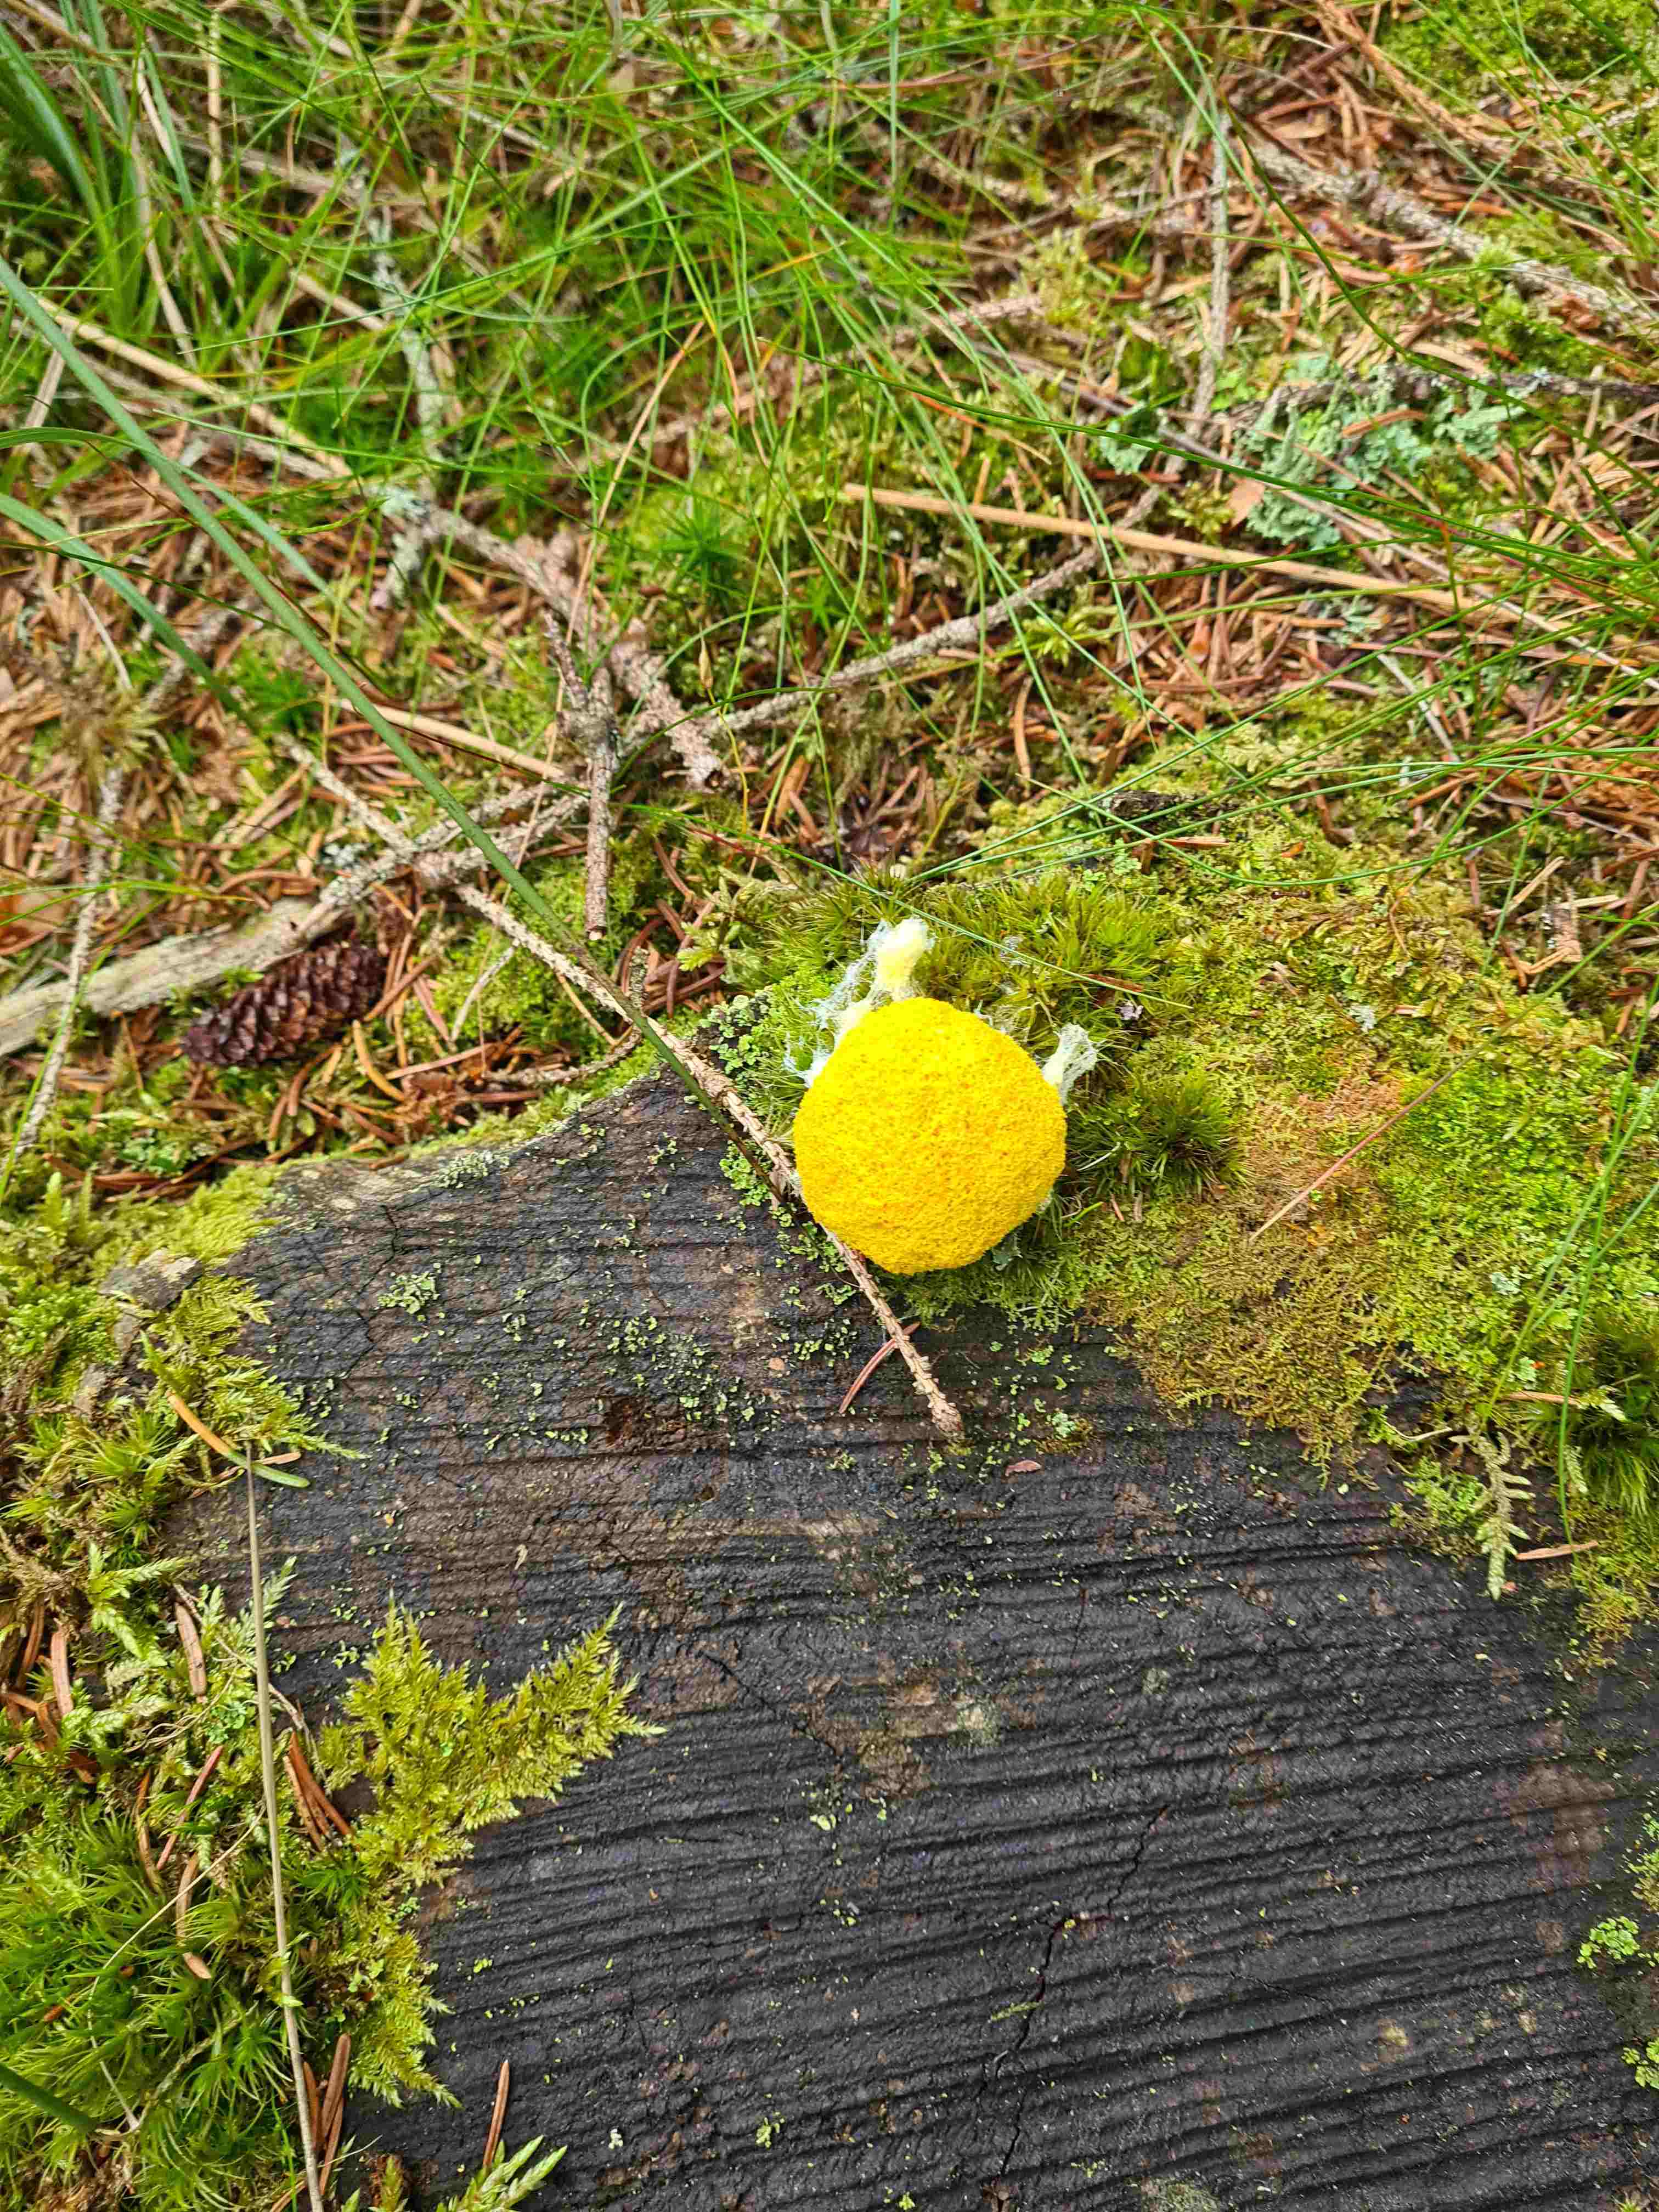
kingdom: Protozoa
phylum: Mycetozoa
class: Myxomycetes
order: Physarales
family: Physaraceae
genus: Fuligo
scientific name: Fuligo septica
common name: gul troldsmør
